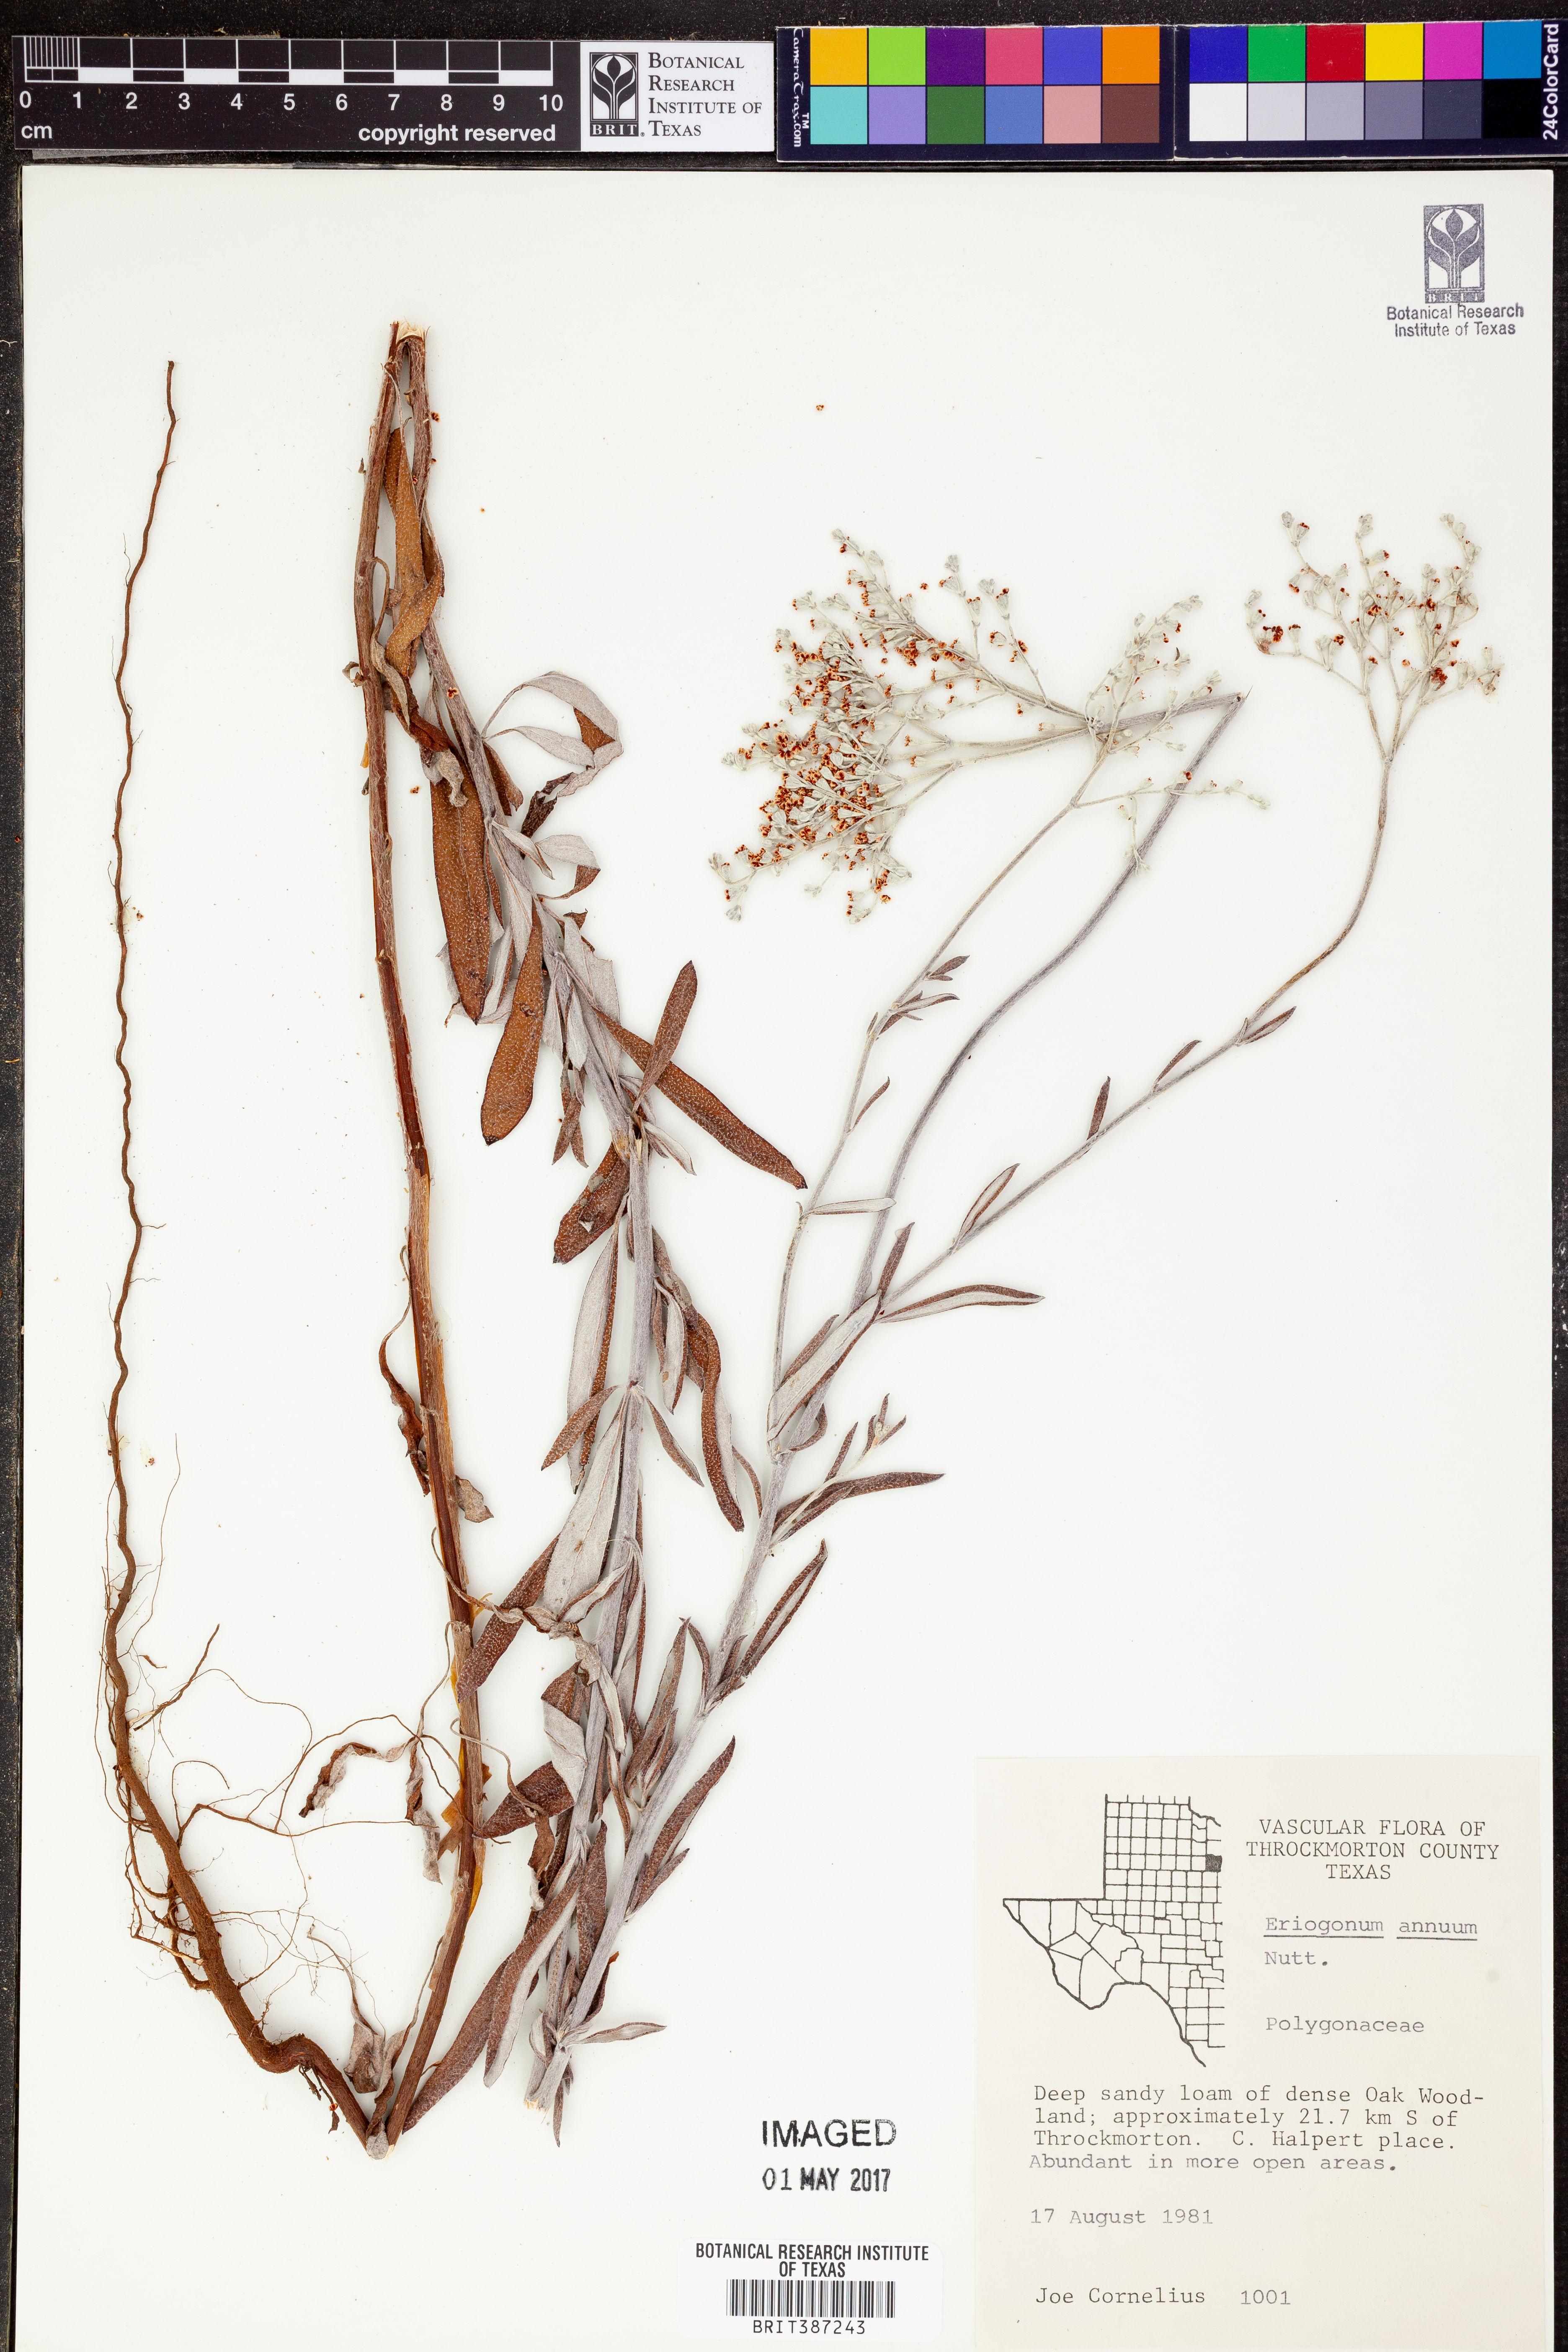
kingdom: Plantae
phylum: Tracheophyta
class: Magnoliopsida
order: Caryophyllales
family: Polygonaceae
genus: Eriogonum
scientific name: Eriogonum annuum
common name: Annual wild buckwheat
